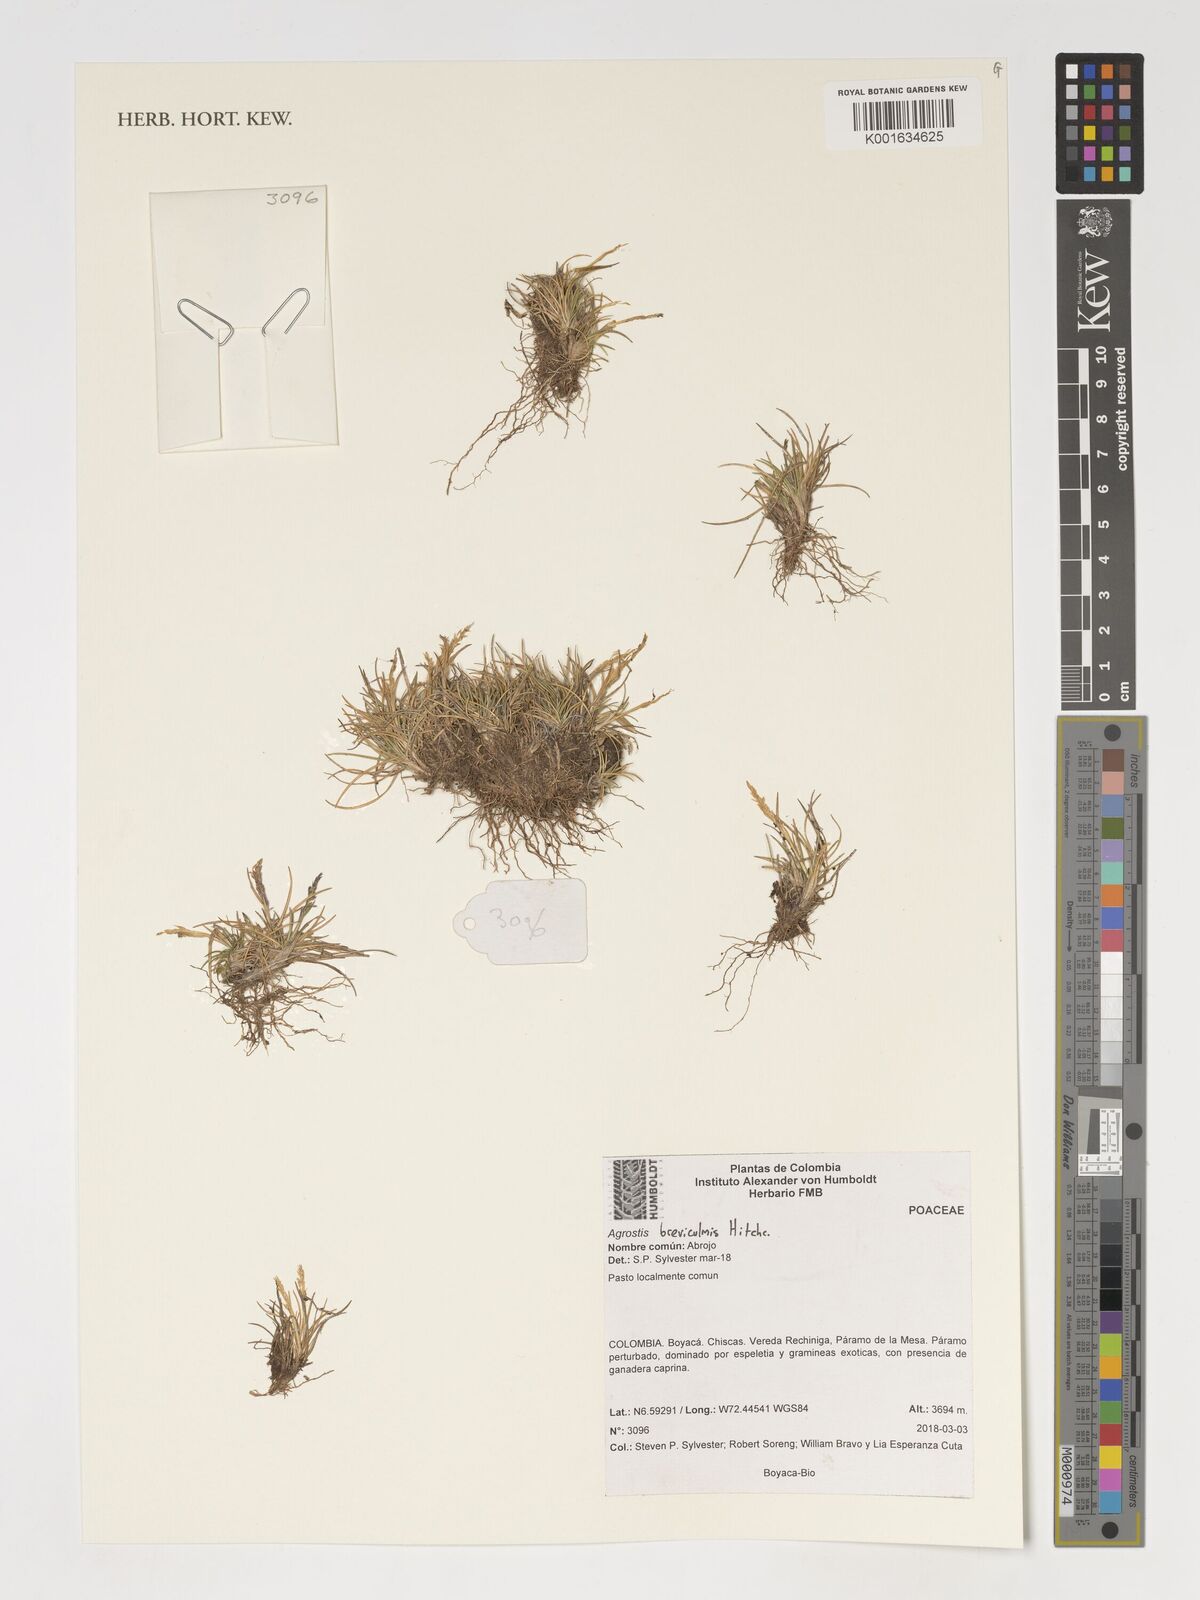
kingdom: Plantae
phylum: Tracheophyta
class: Liliopsida
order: Poales
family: Poaceae
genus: Agrostis
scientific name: Agrostis breviculmis
